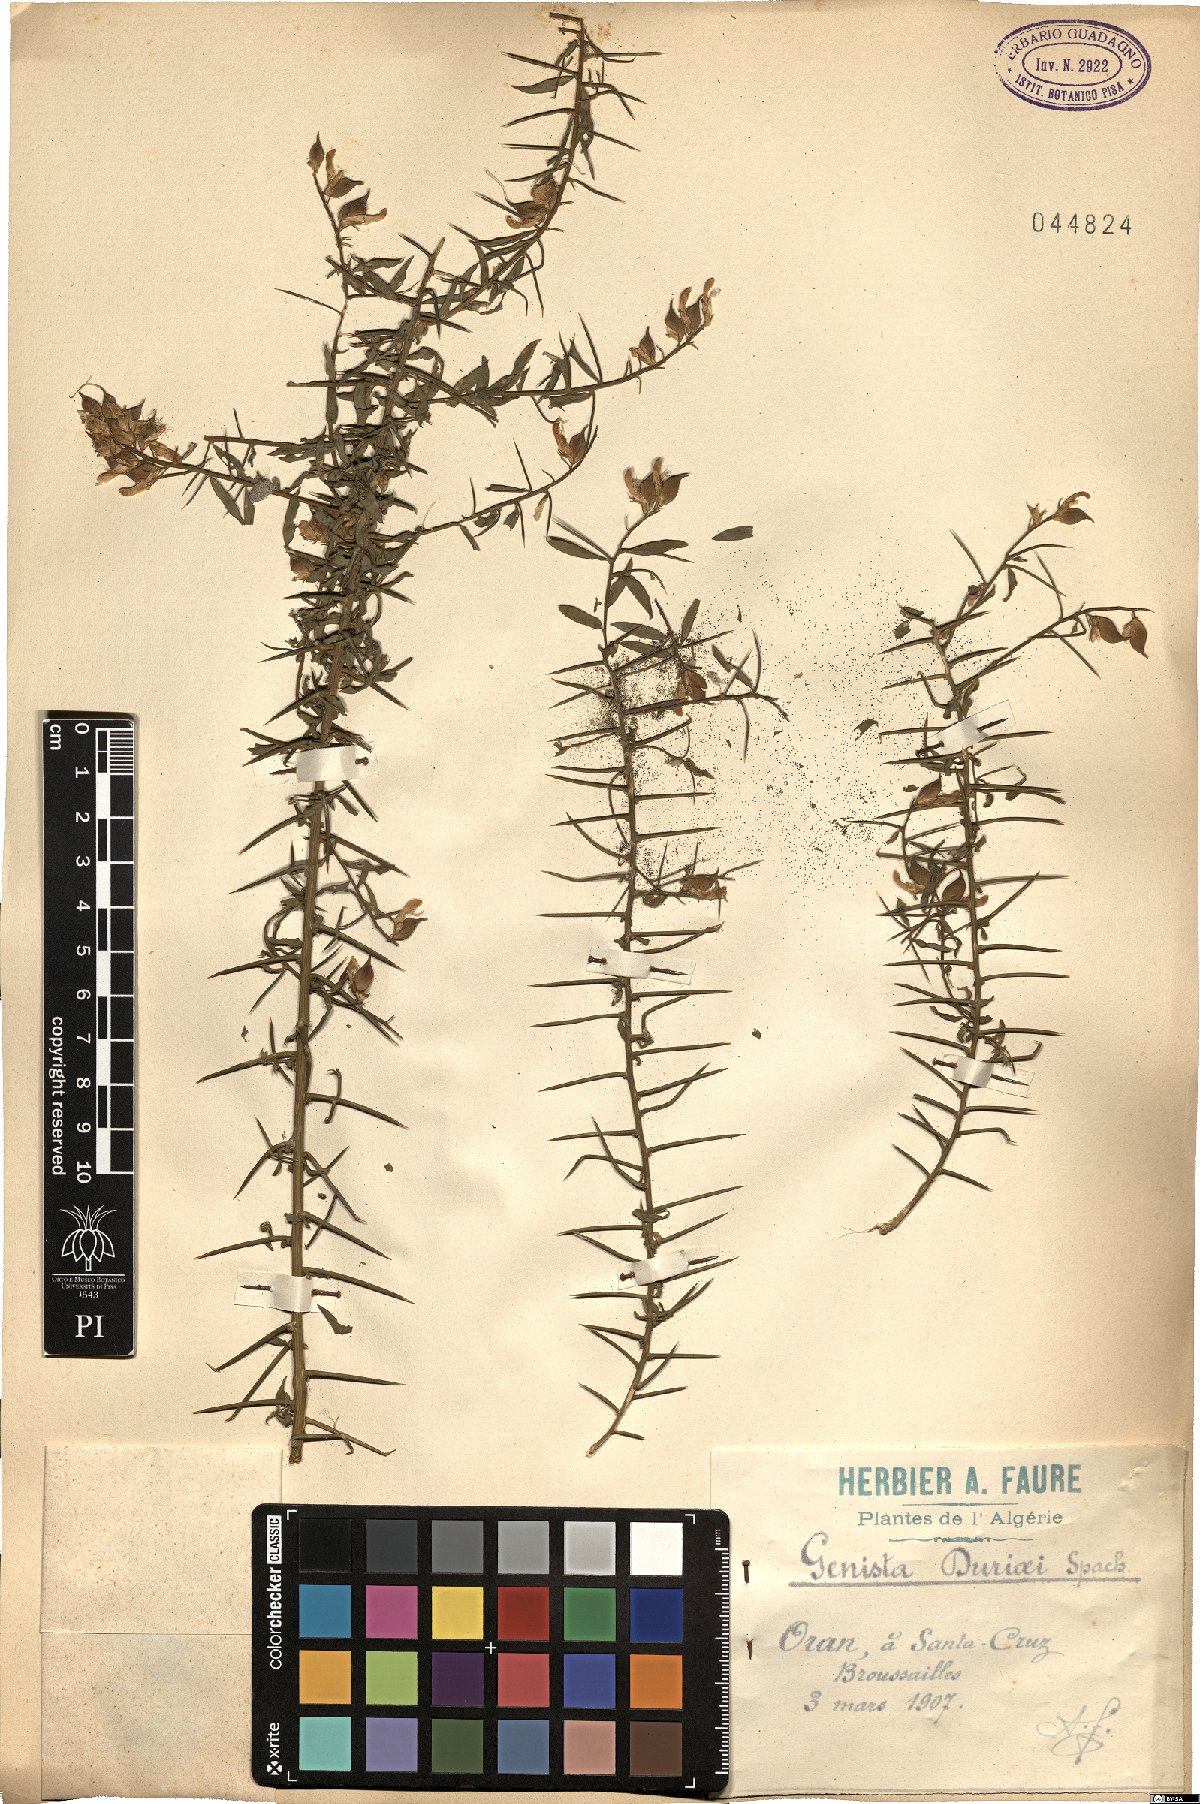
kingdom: Plantae
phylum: Tracheophyta
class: Magnoliopsida
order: Fabales
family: Fabaceae
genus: Retama
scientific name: Retama raetam
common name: Retem
